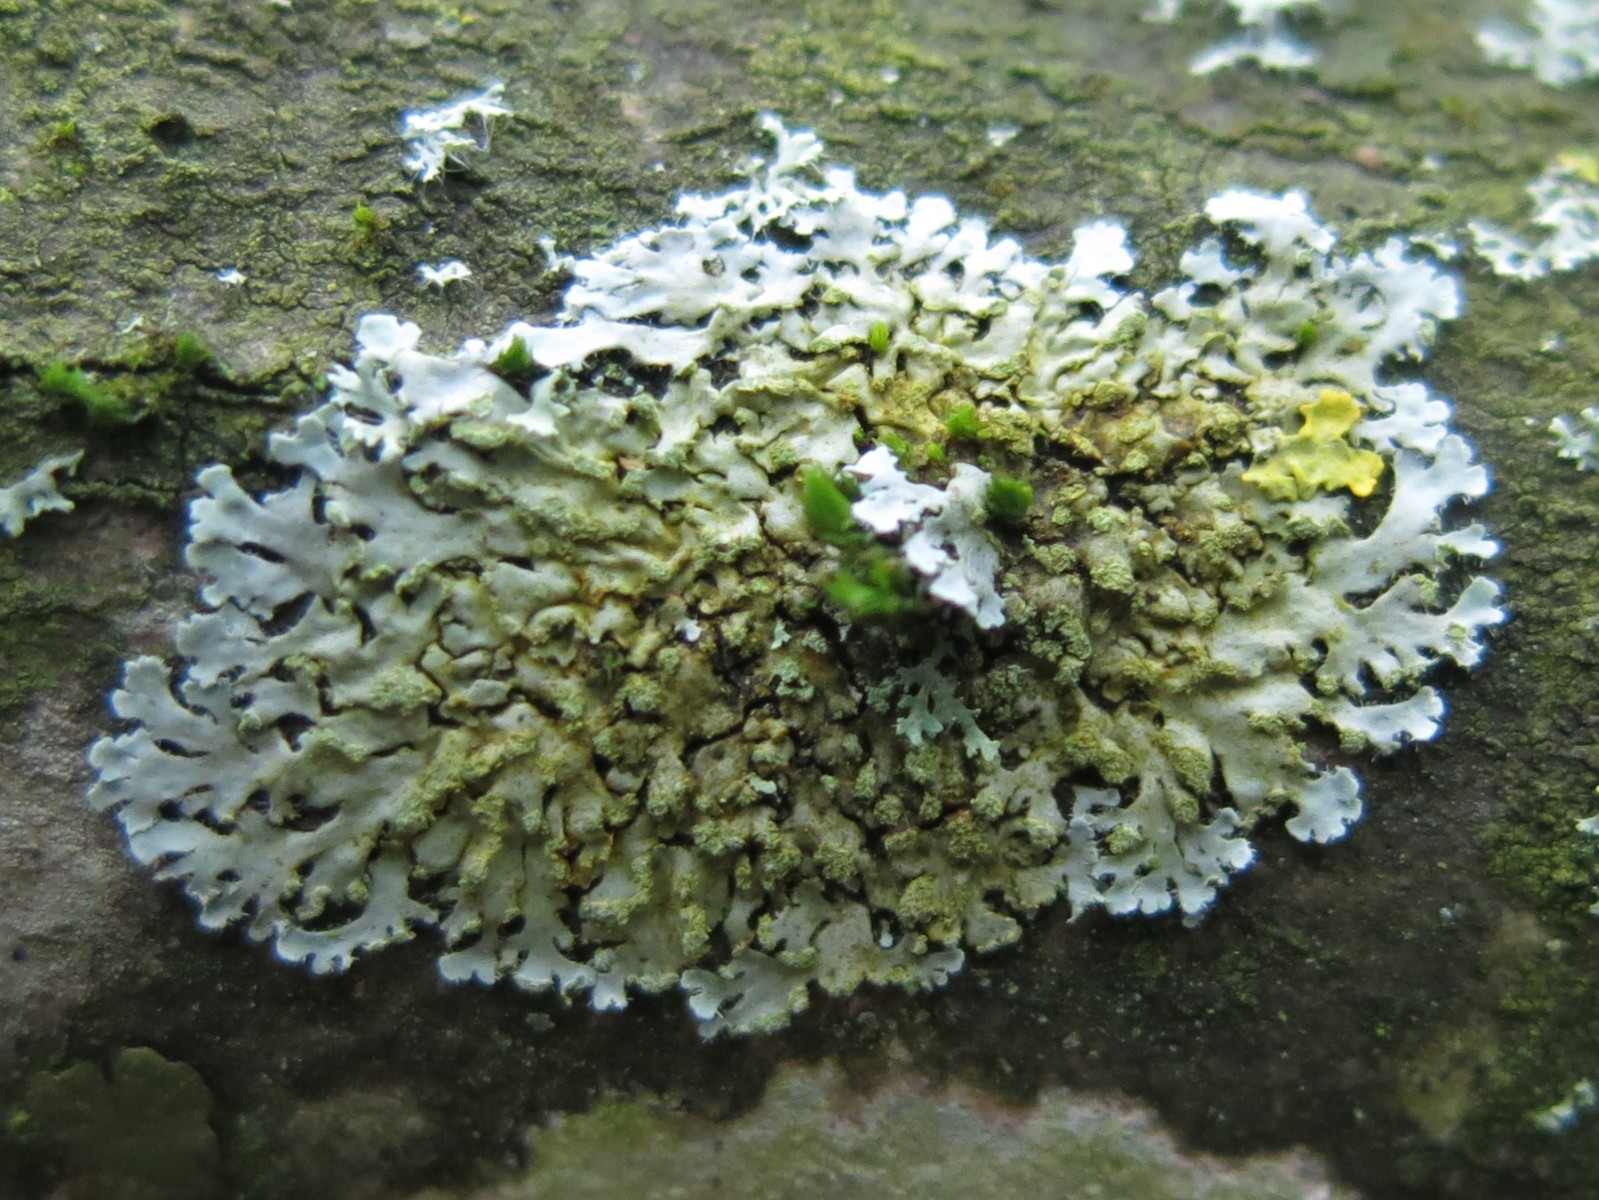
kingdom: Fungi
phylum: Ascomycota
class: Lecanoromycetes
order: Caliciales
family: Physciaceae
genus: Phaeophyscia
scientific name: Phaeophyscia orbicularis
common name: grågrøn rosetlav
